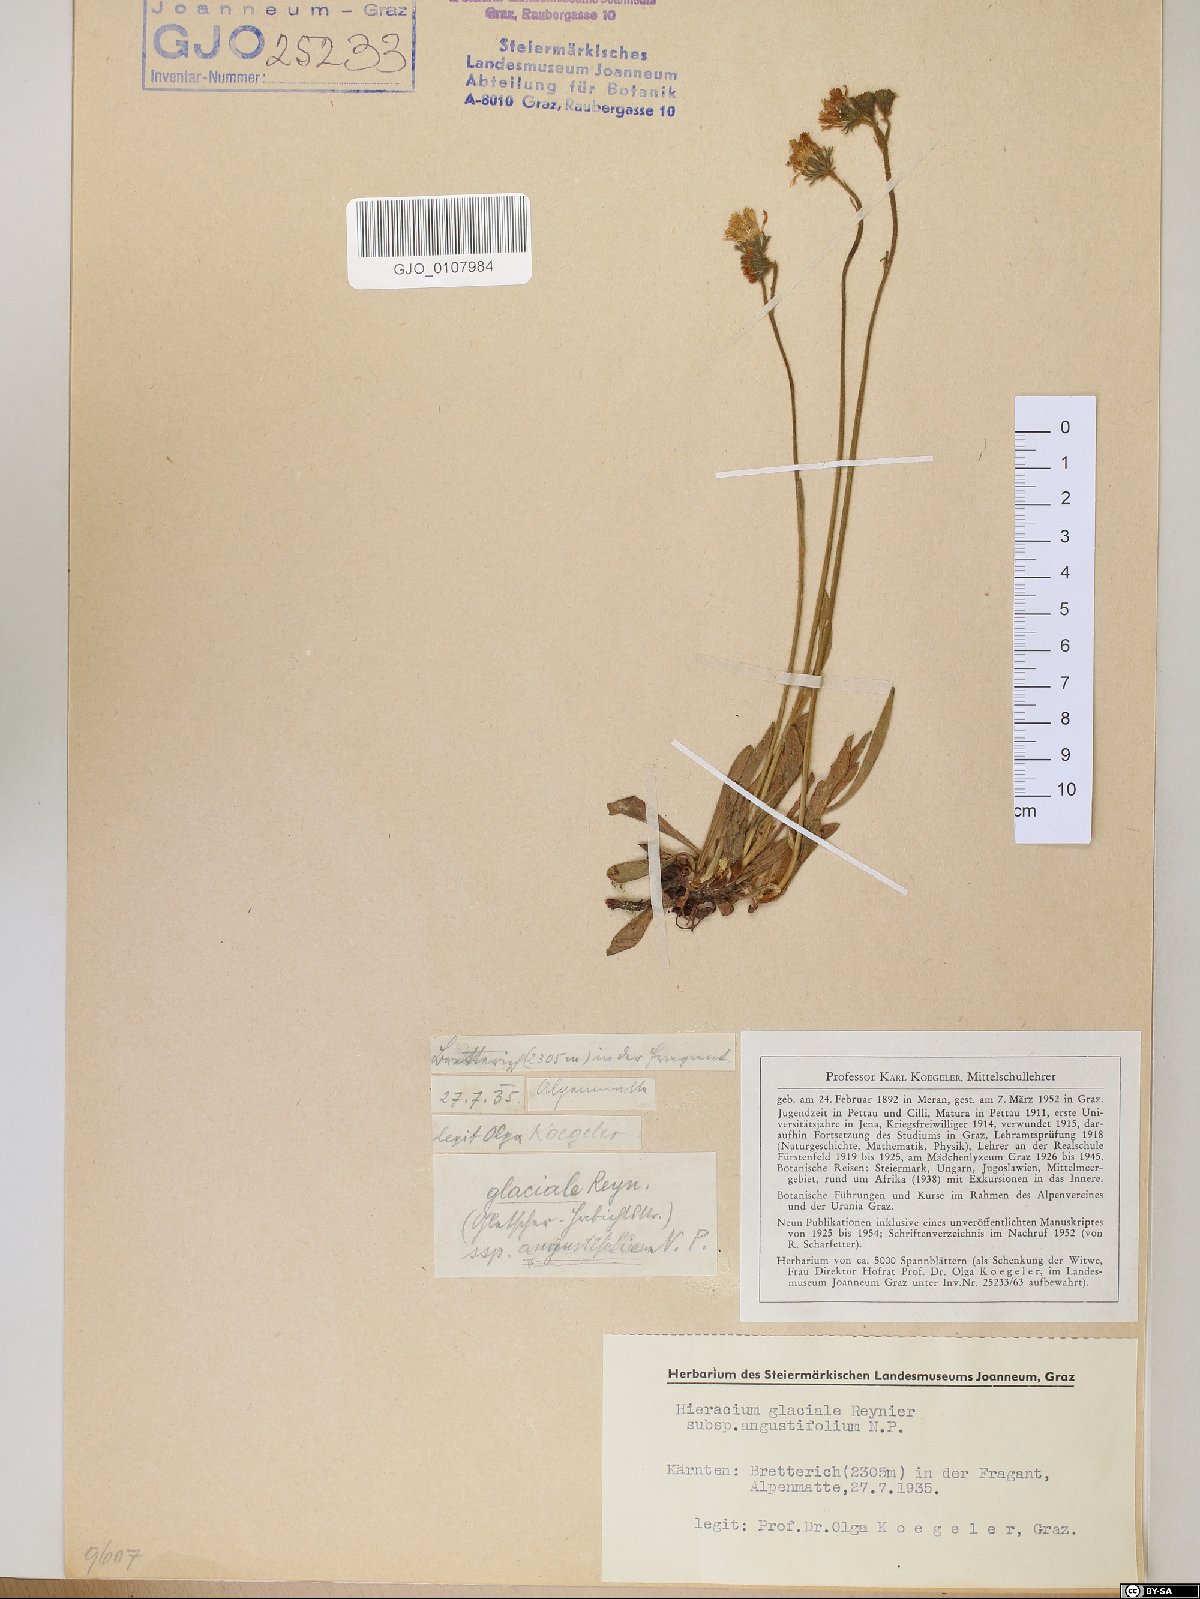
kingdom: Plantae
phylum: Tracheophyta
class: Magnoliopsida
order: Asterales
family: Asteraceae
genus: Pilosella
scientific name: Pilosella glacialis
